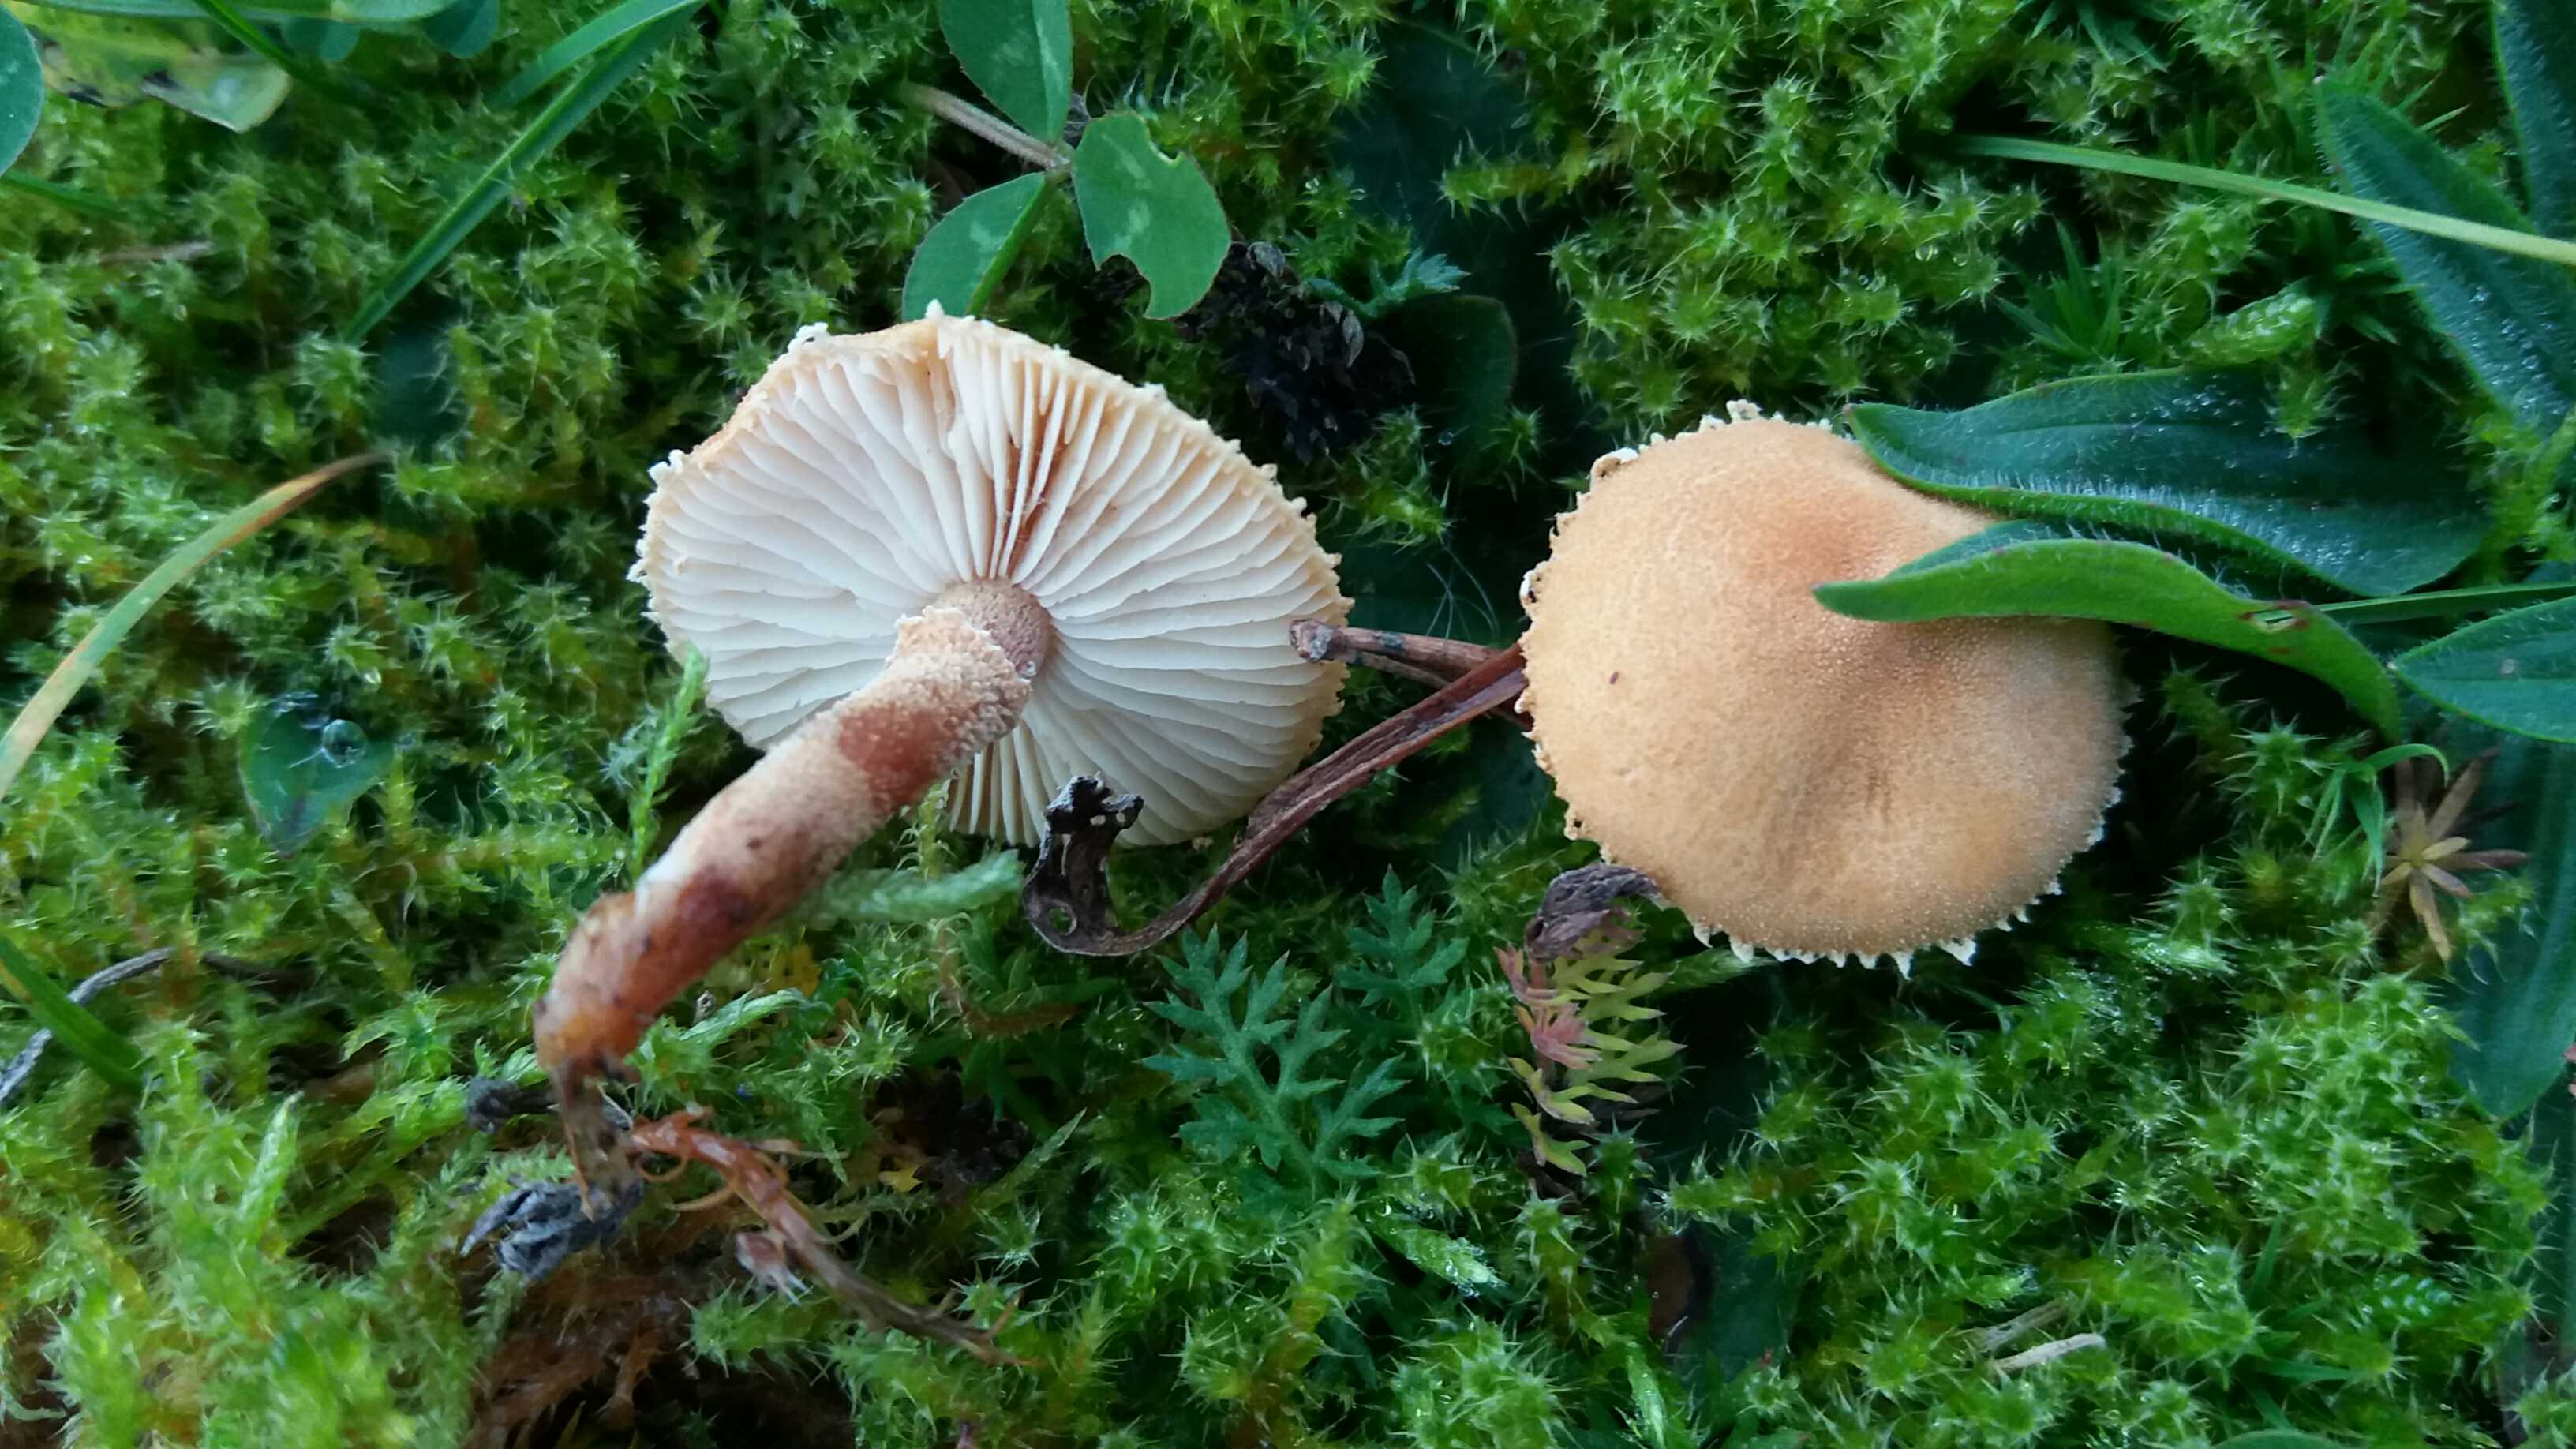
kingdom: Fungi
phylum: Basidiomycota
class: Agaricomycetes
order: Agaricales
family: Tricholomataceae
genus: Cystoderma
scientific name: Cystoderma amianthinum
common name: okkergul grynhat
